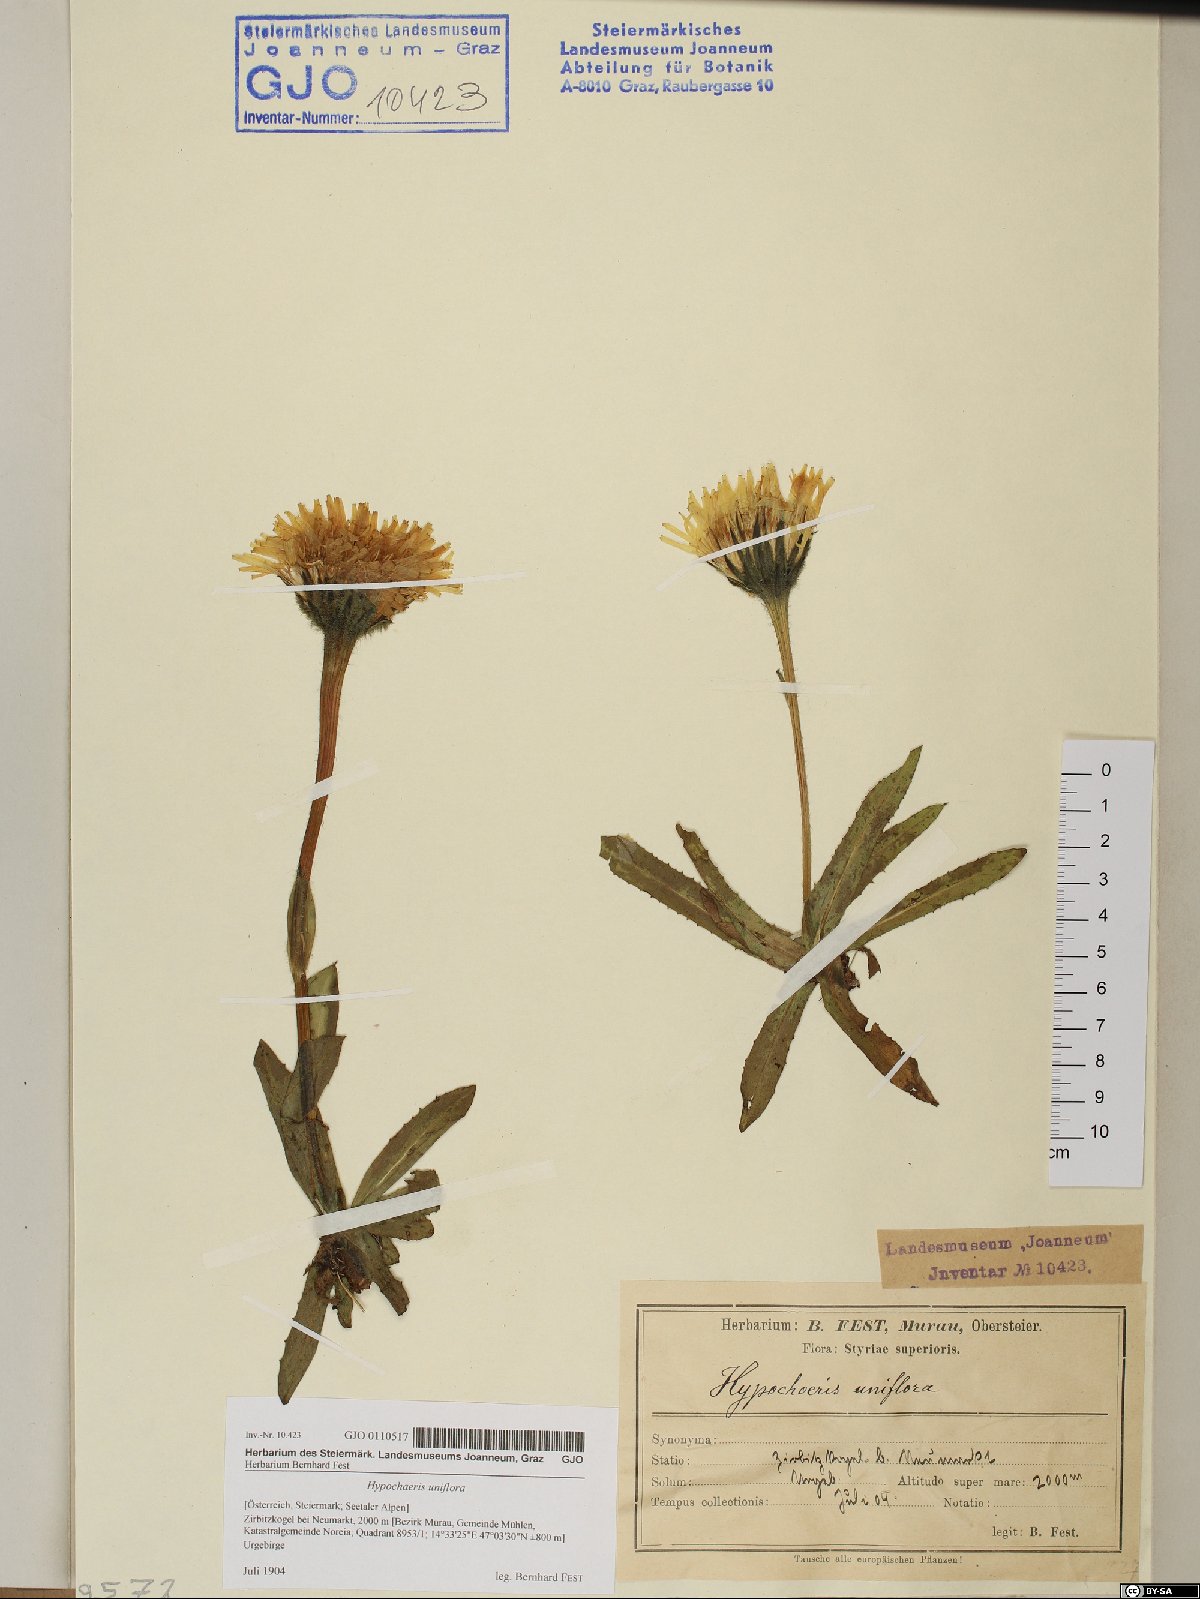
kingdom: Plantae
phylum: Tracheophyta
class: Magnoliopsida
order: Asterales
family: Asteraceae
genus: Trommsdorffia
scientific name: Trommsdorffia uniflora
